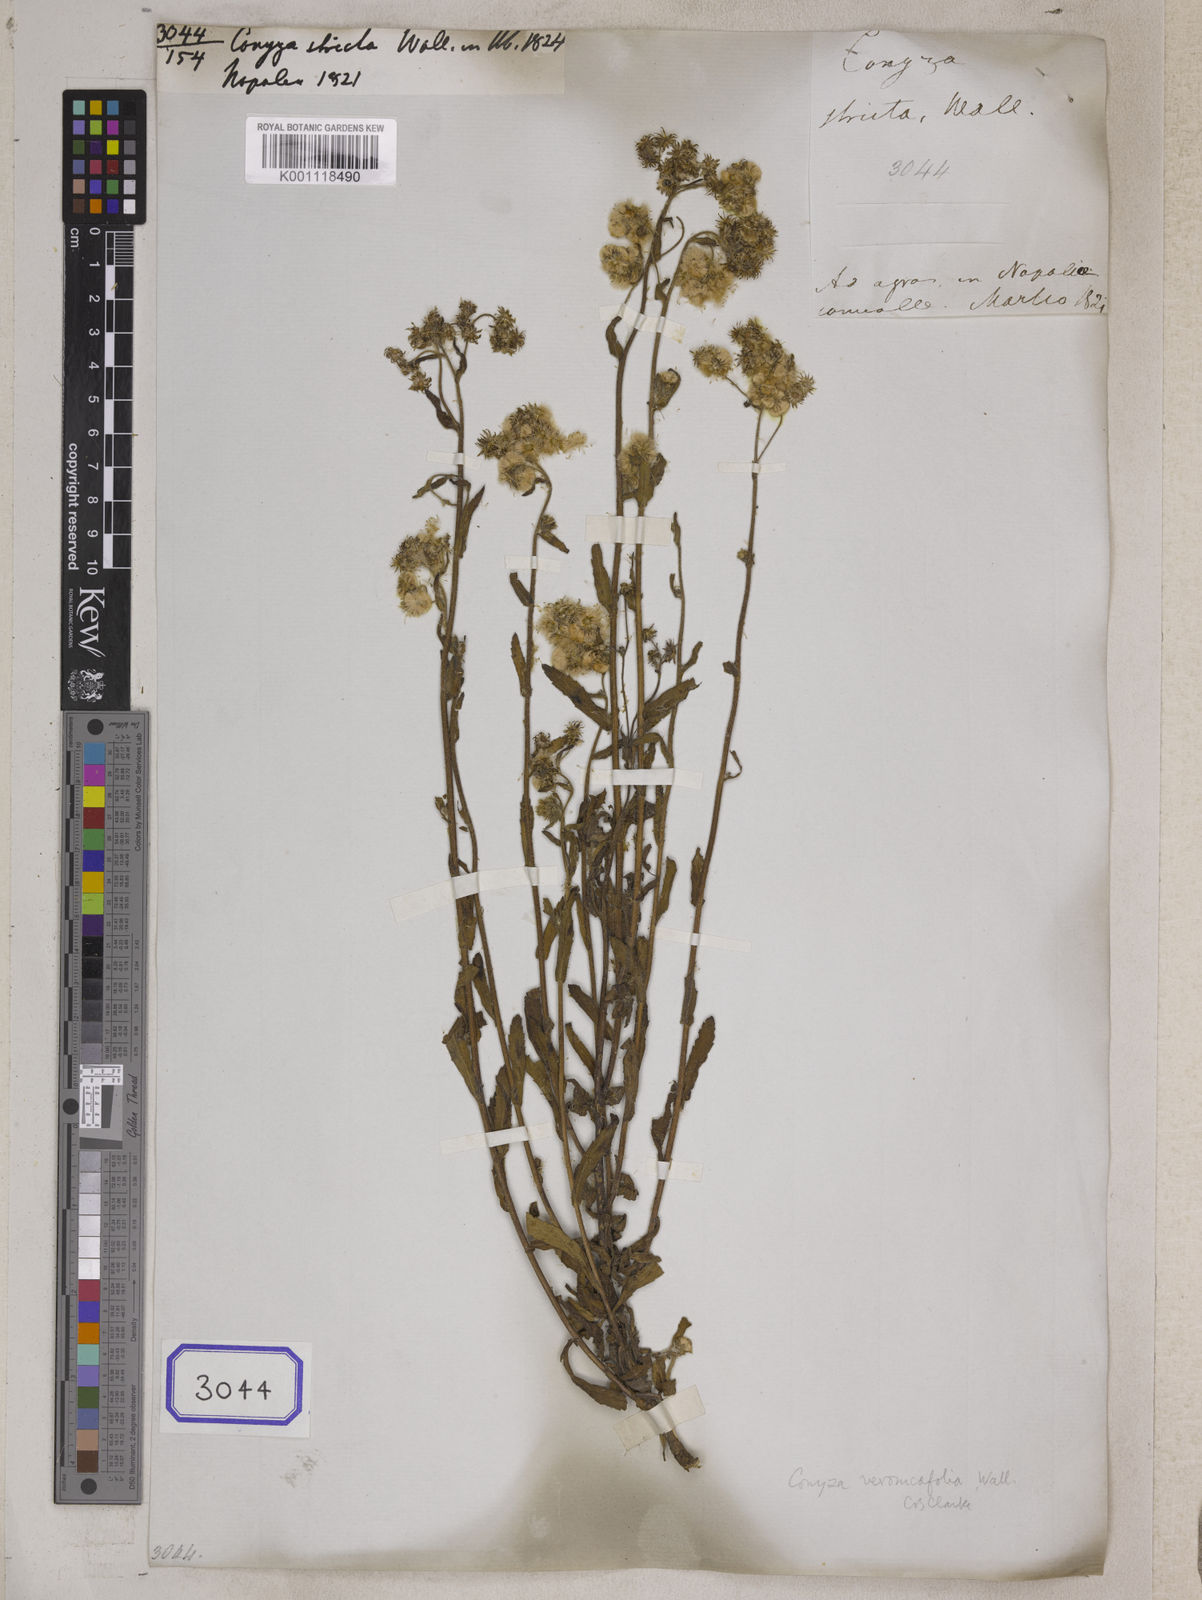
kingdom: Plantae
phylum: Tracheophyta
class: Magnoliopsida
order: Asterales
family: Asteraceae
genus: Eschenbachia
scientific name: Eschenbachia japonica
